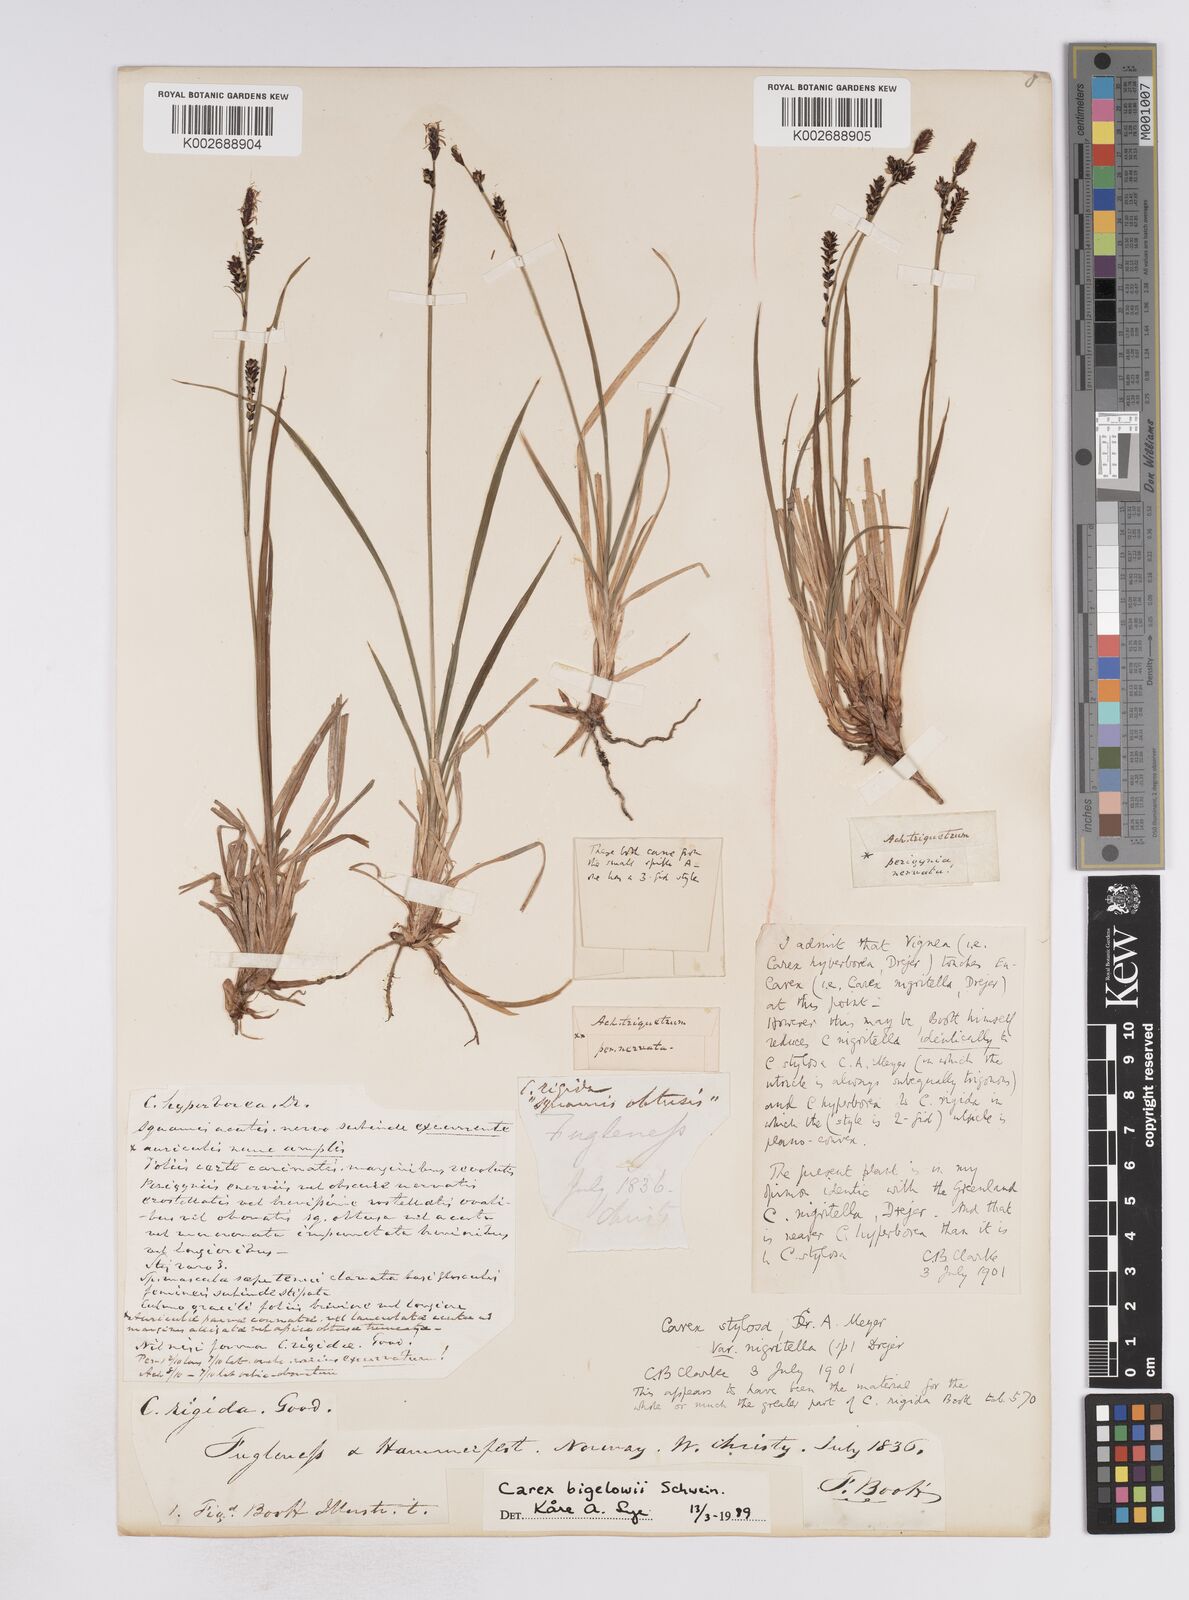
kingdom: Plantae
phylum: Tracheophyta
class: Liliopsida
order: Poales
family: Cyperaceae
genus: Carex
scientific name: Carex stylosa
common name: Long-styled sedge
